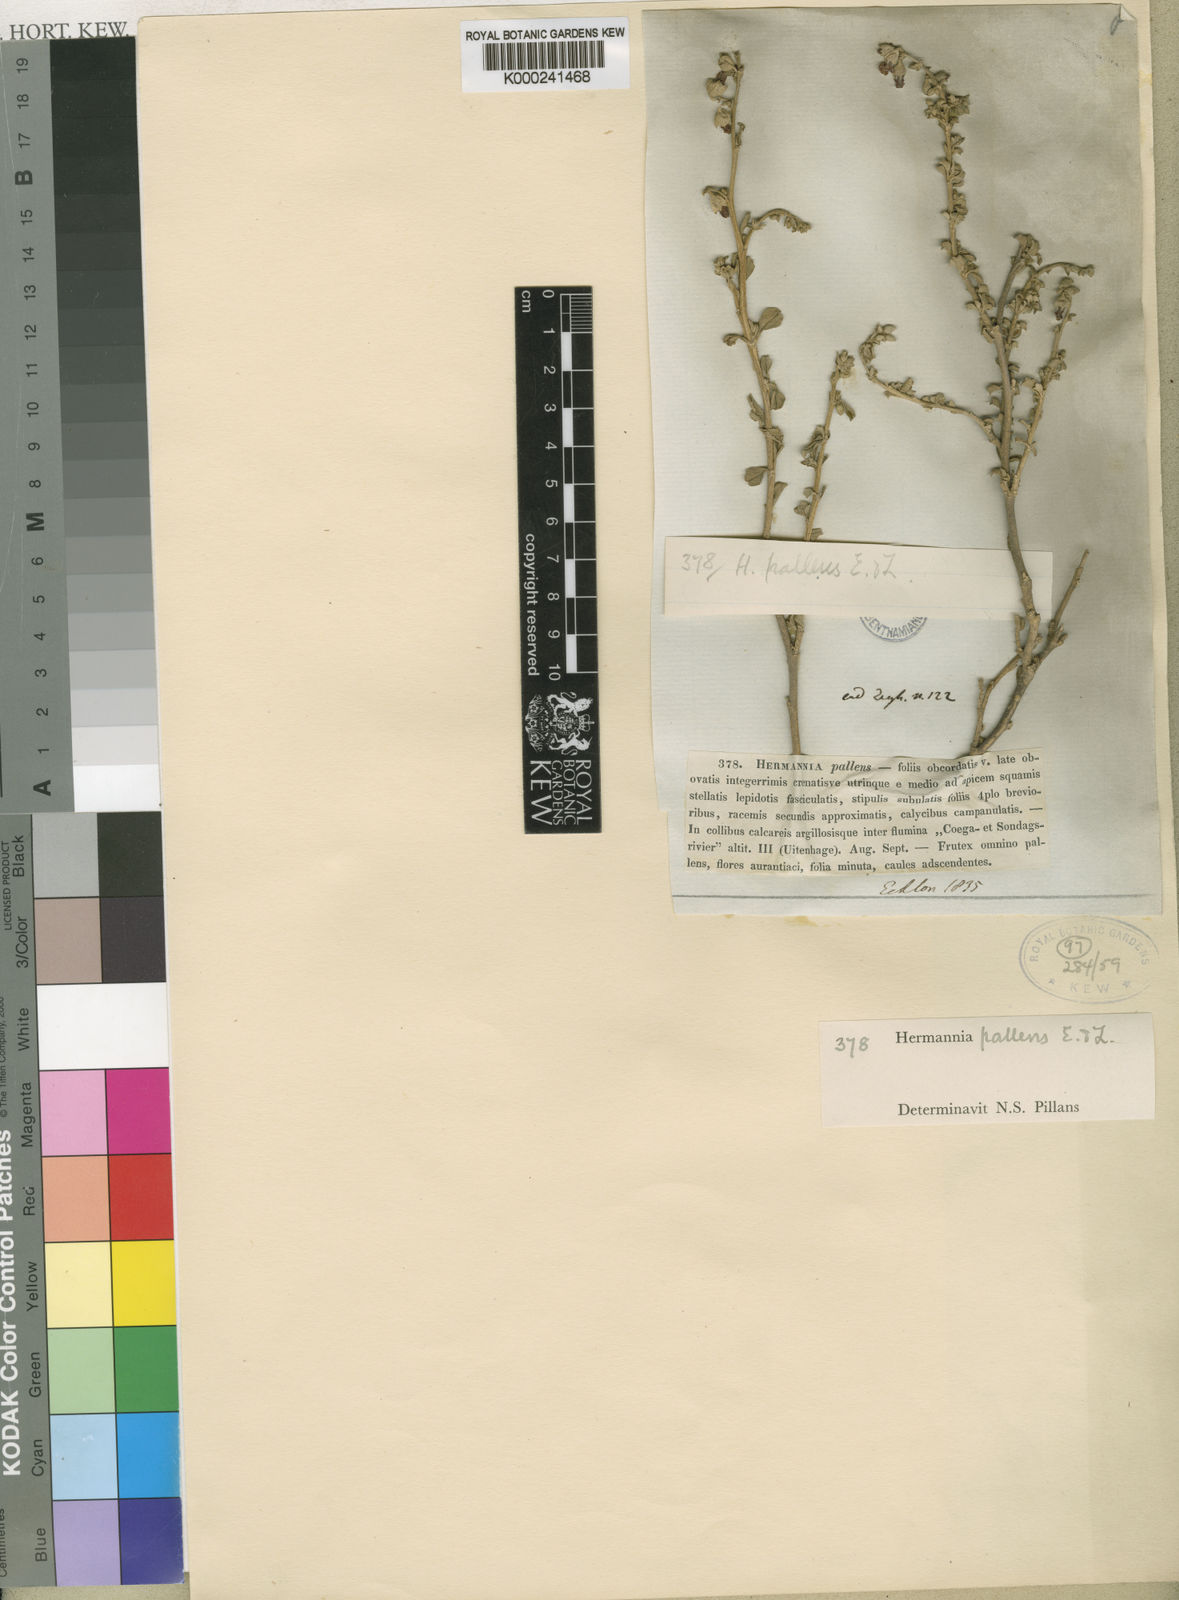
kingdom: Plantae
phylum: Tracheophyta
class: Magnoliopsida
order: Malvales
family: Malvaceae
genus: Hermannia
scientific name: Hermannia cuneifolia
